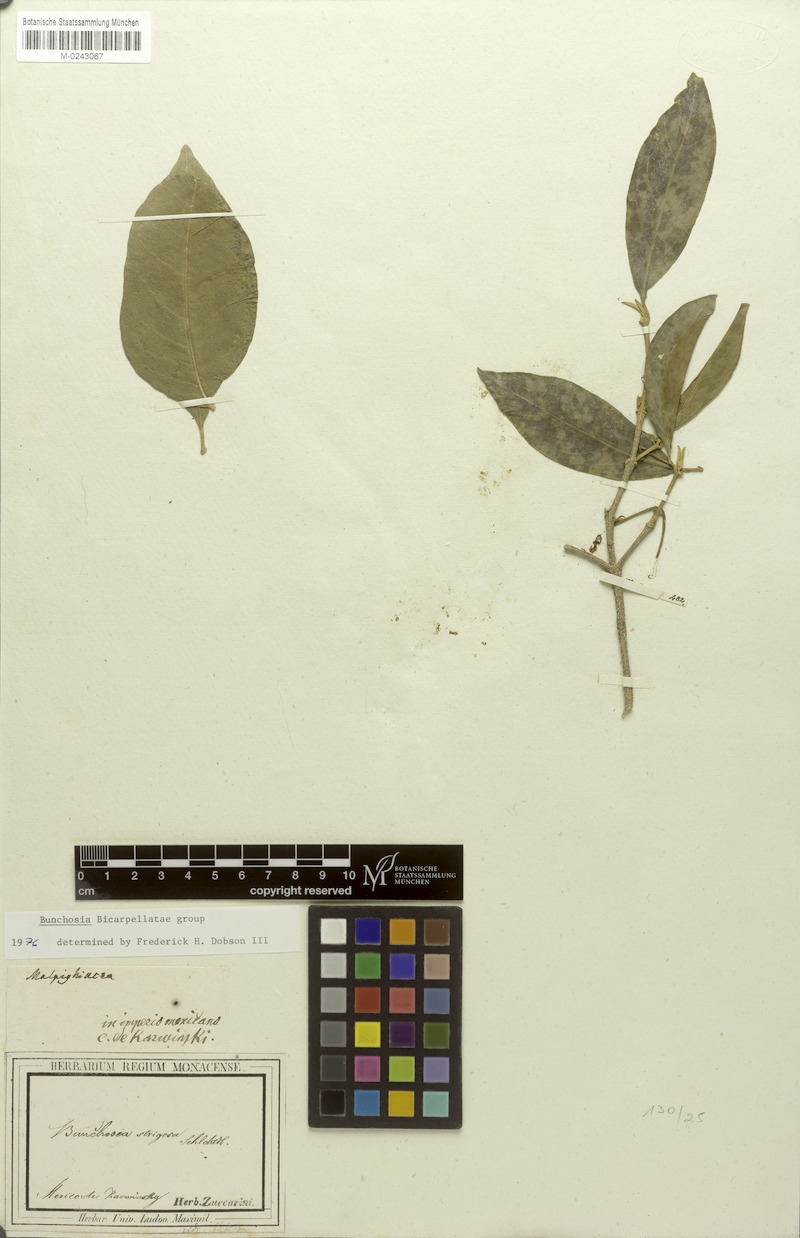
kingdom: Plantae
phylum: Tracheophyta
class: Magnoliopsida
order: Malpighiales
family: Malpighiaceae
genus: Bunchosia
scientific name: Bunchosia strigosa
